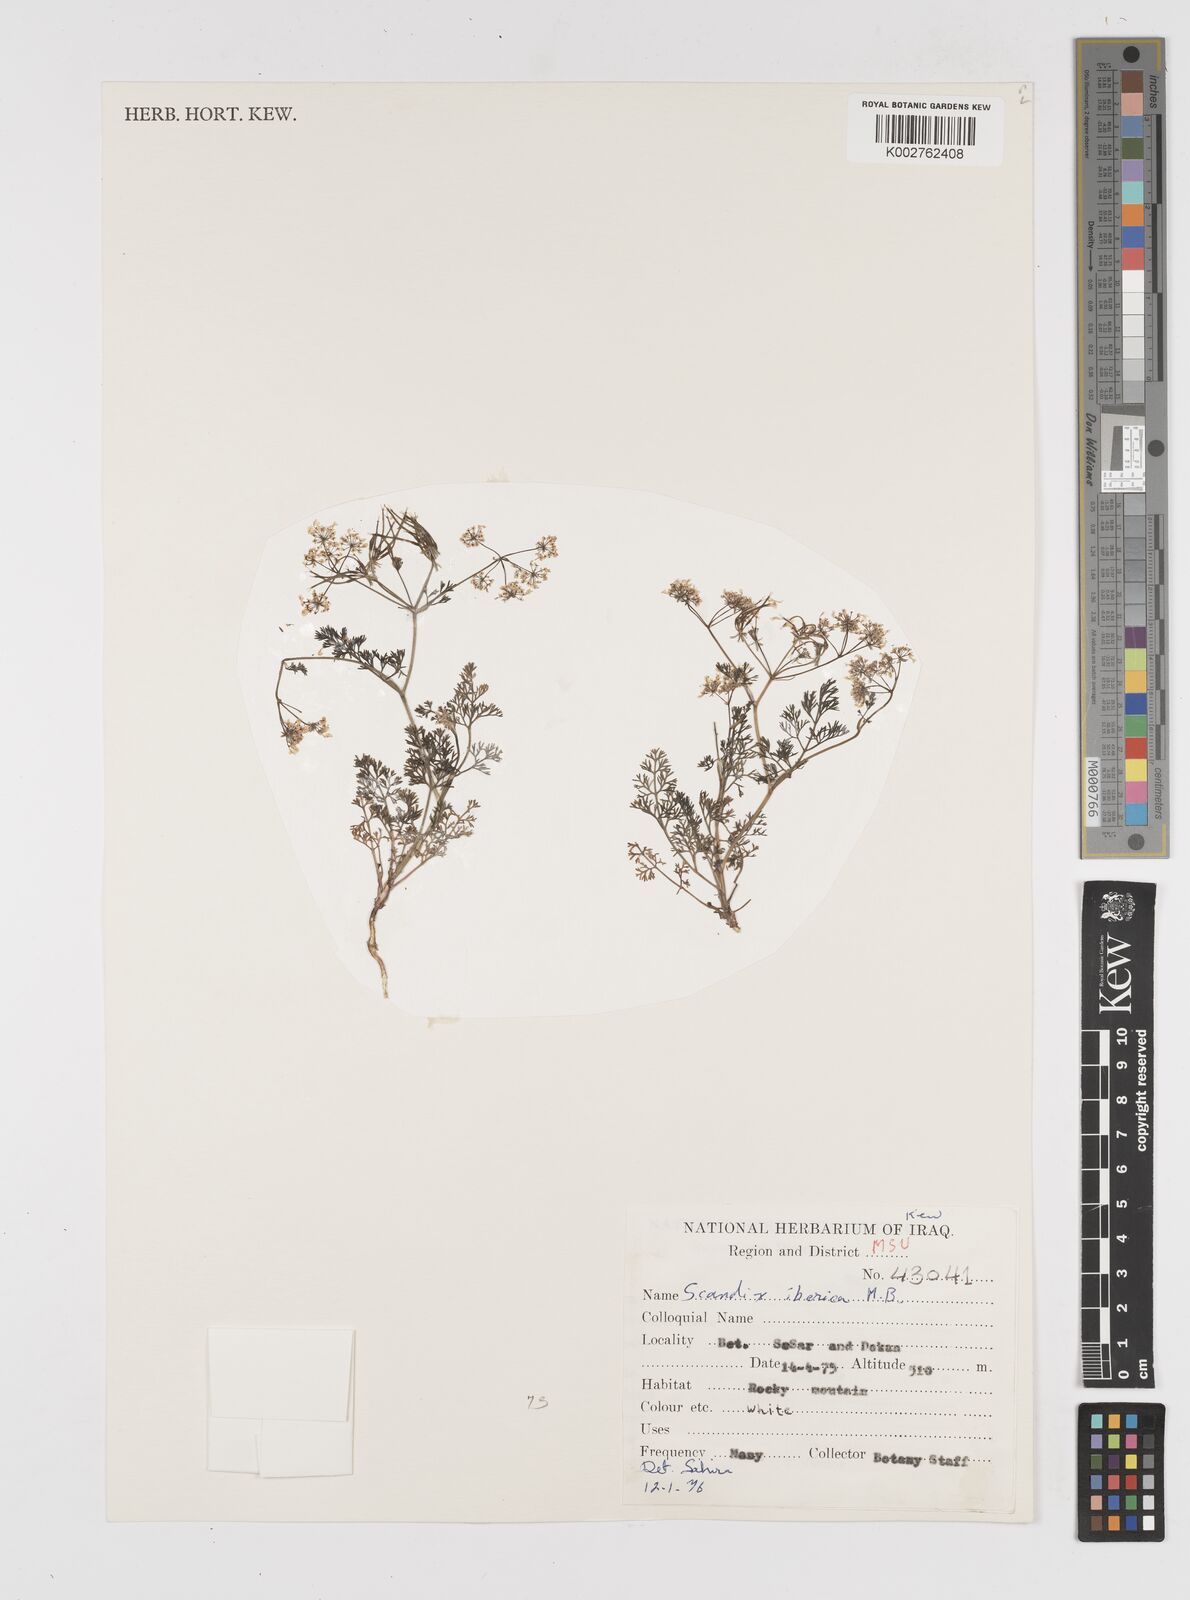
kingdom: Plantae
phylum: Tracheophyta
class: Magnoliopsida
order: Apiales
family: Apiaceae
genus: Scandix
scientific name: Scandix iberica
